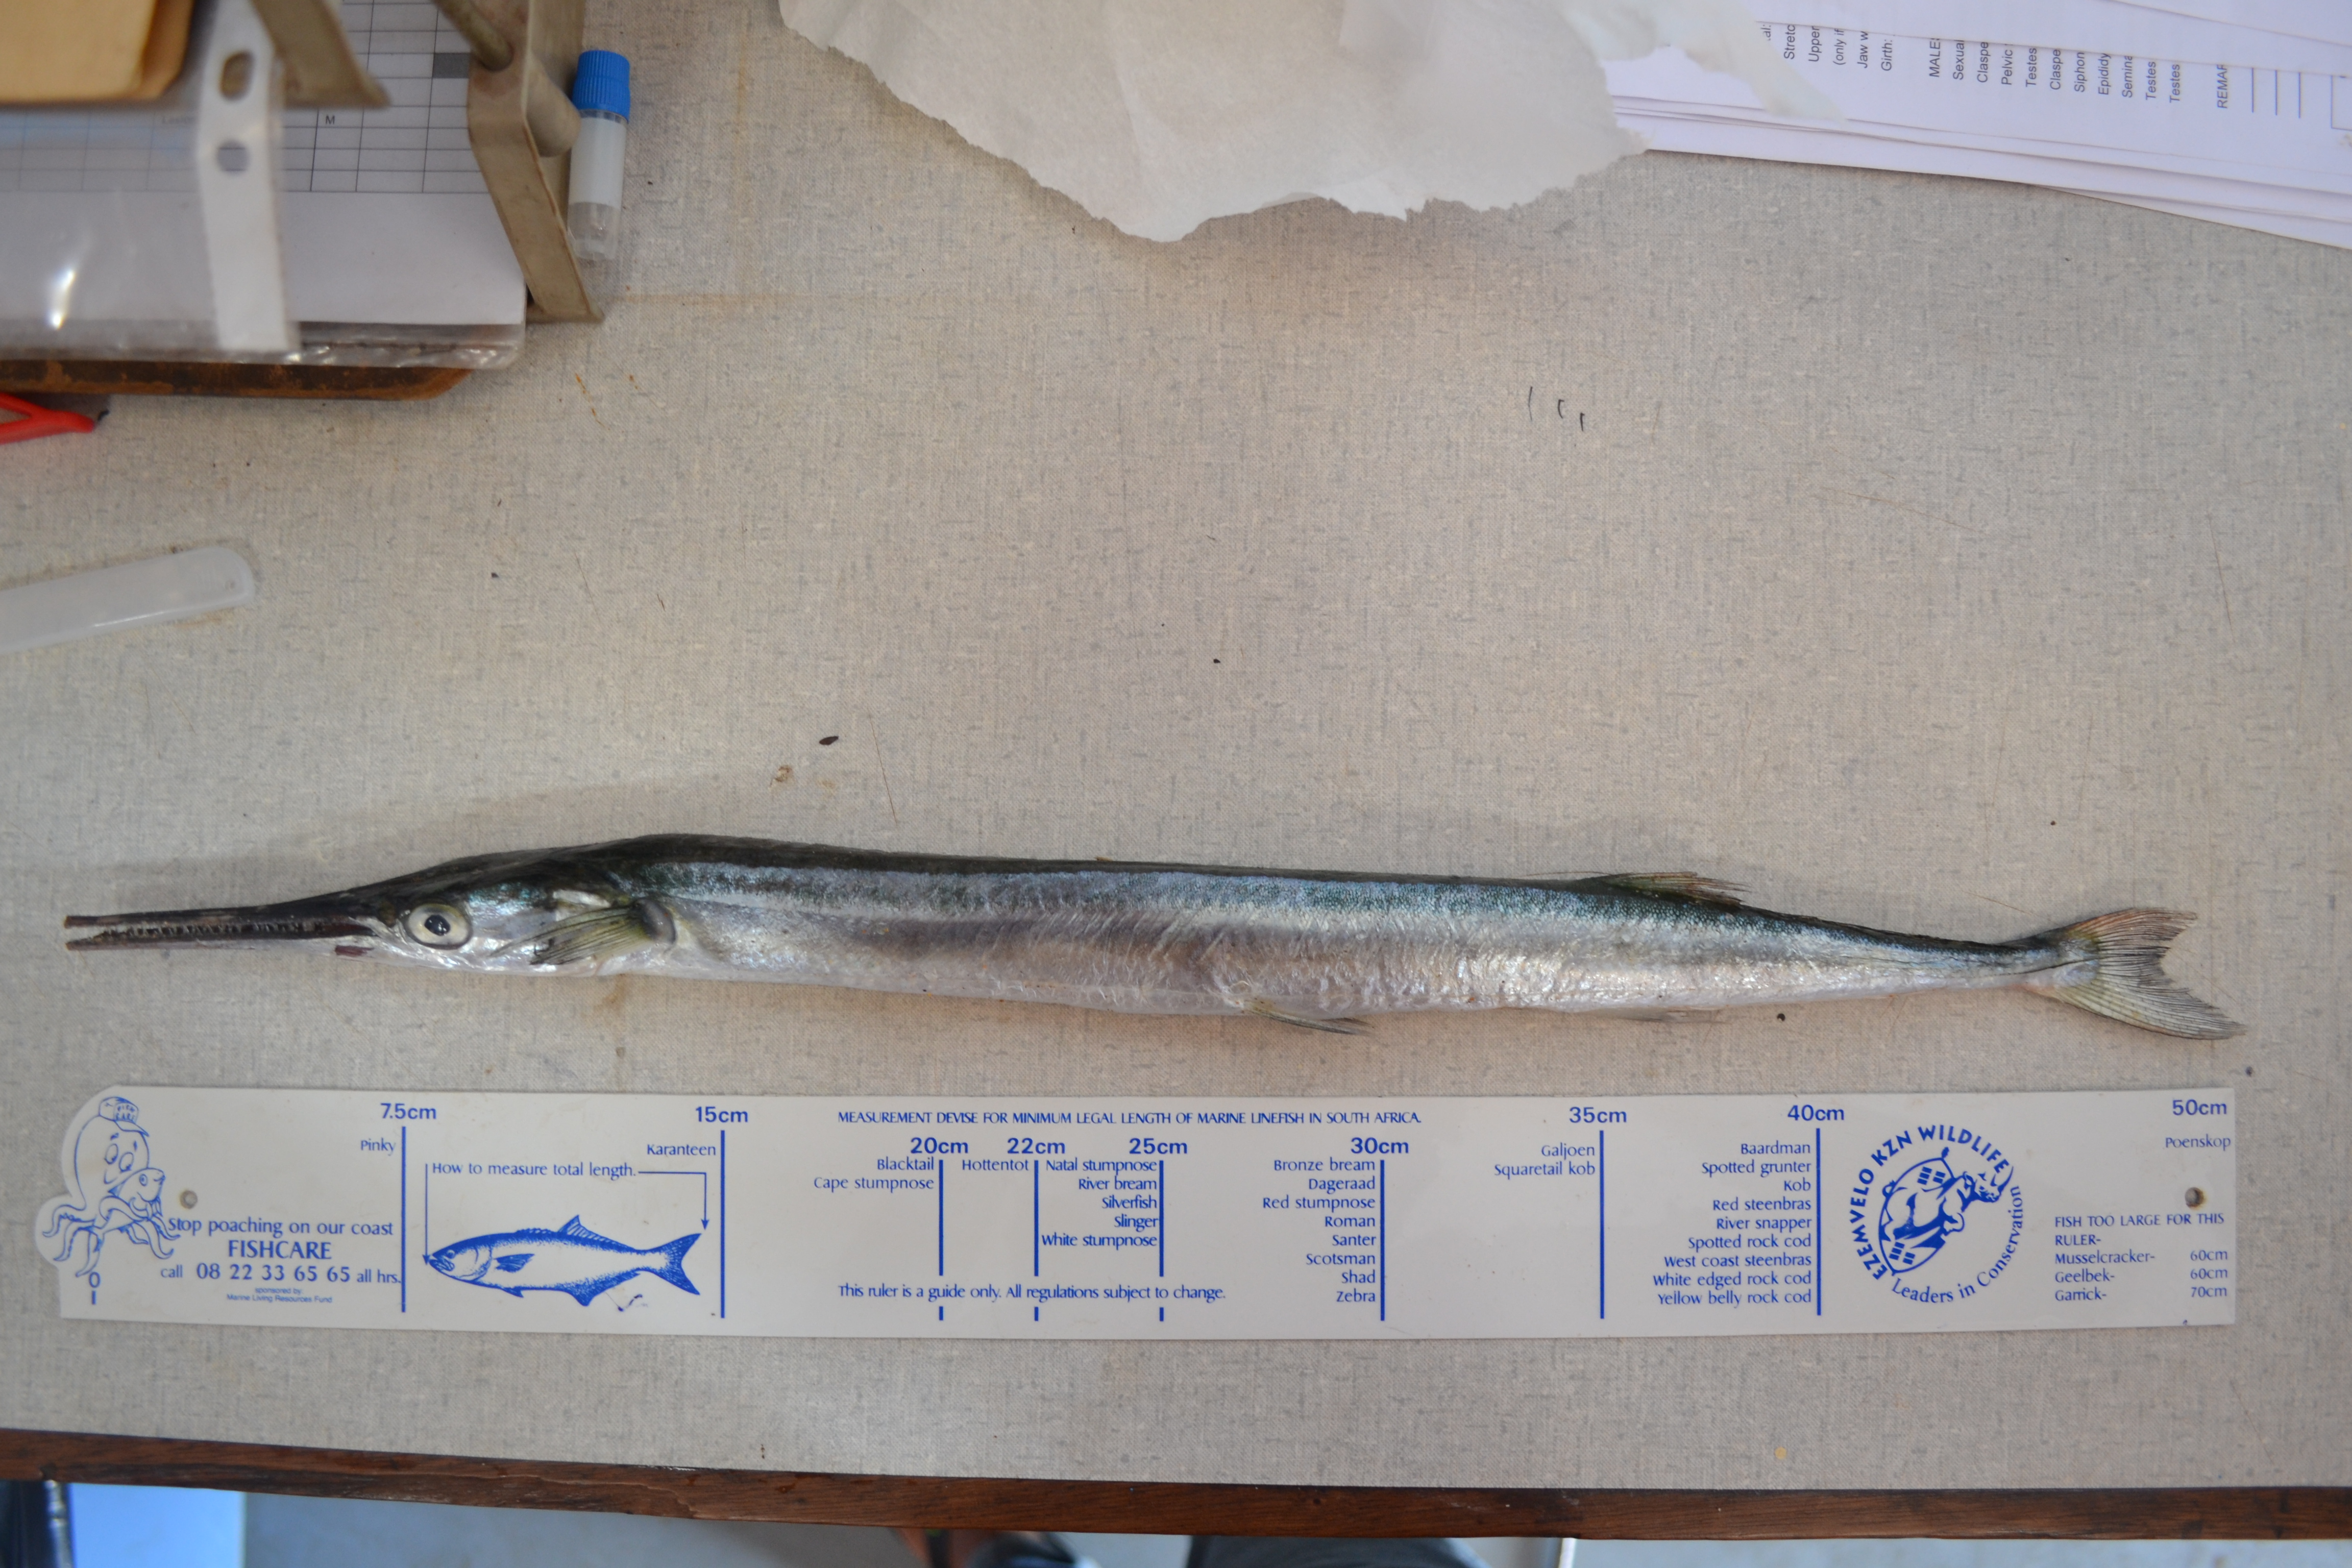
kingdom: Animalia
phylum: Chordata
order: Beloniformes
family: Belonidae
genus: Tylosurus
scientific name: Tylosurus crocodilus
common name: Houndfish
